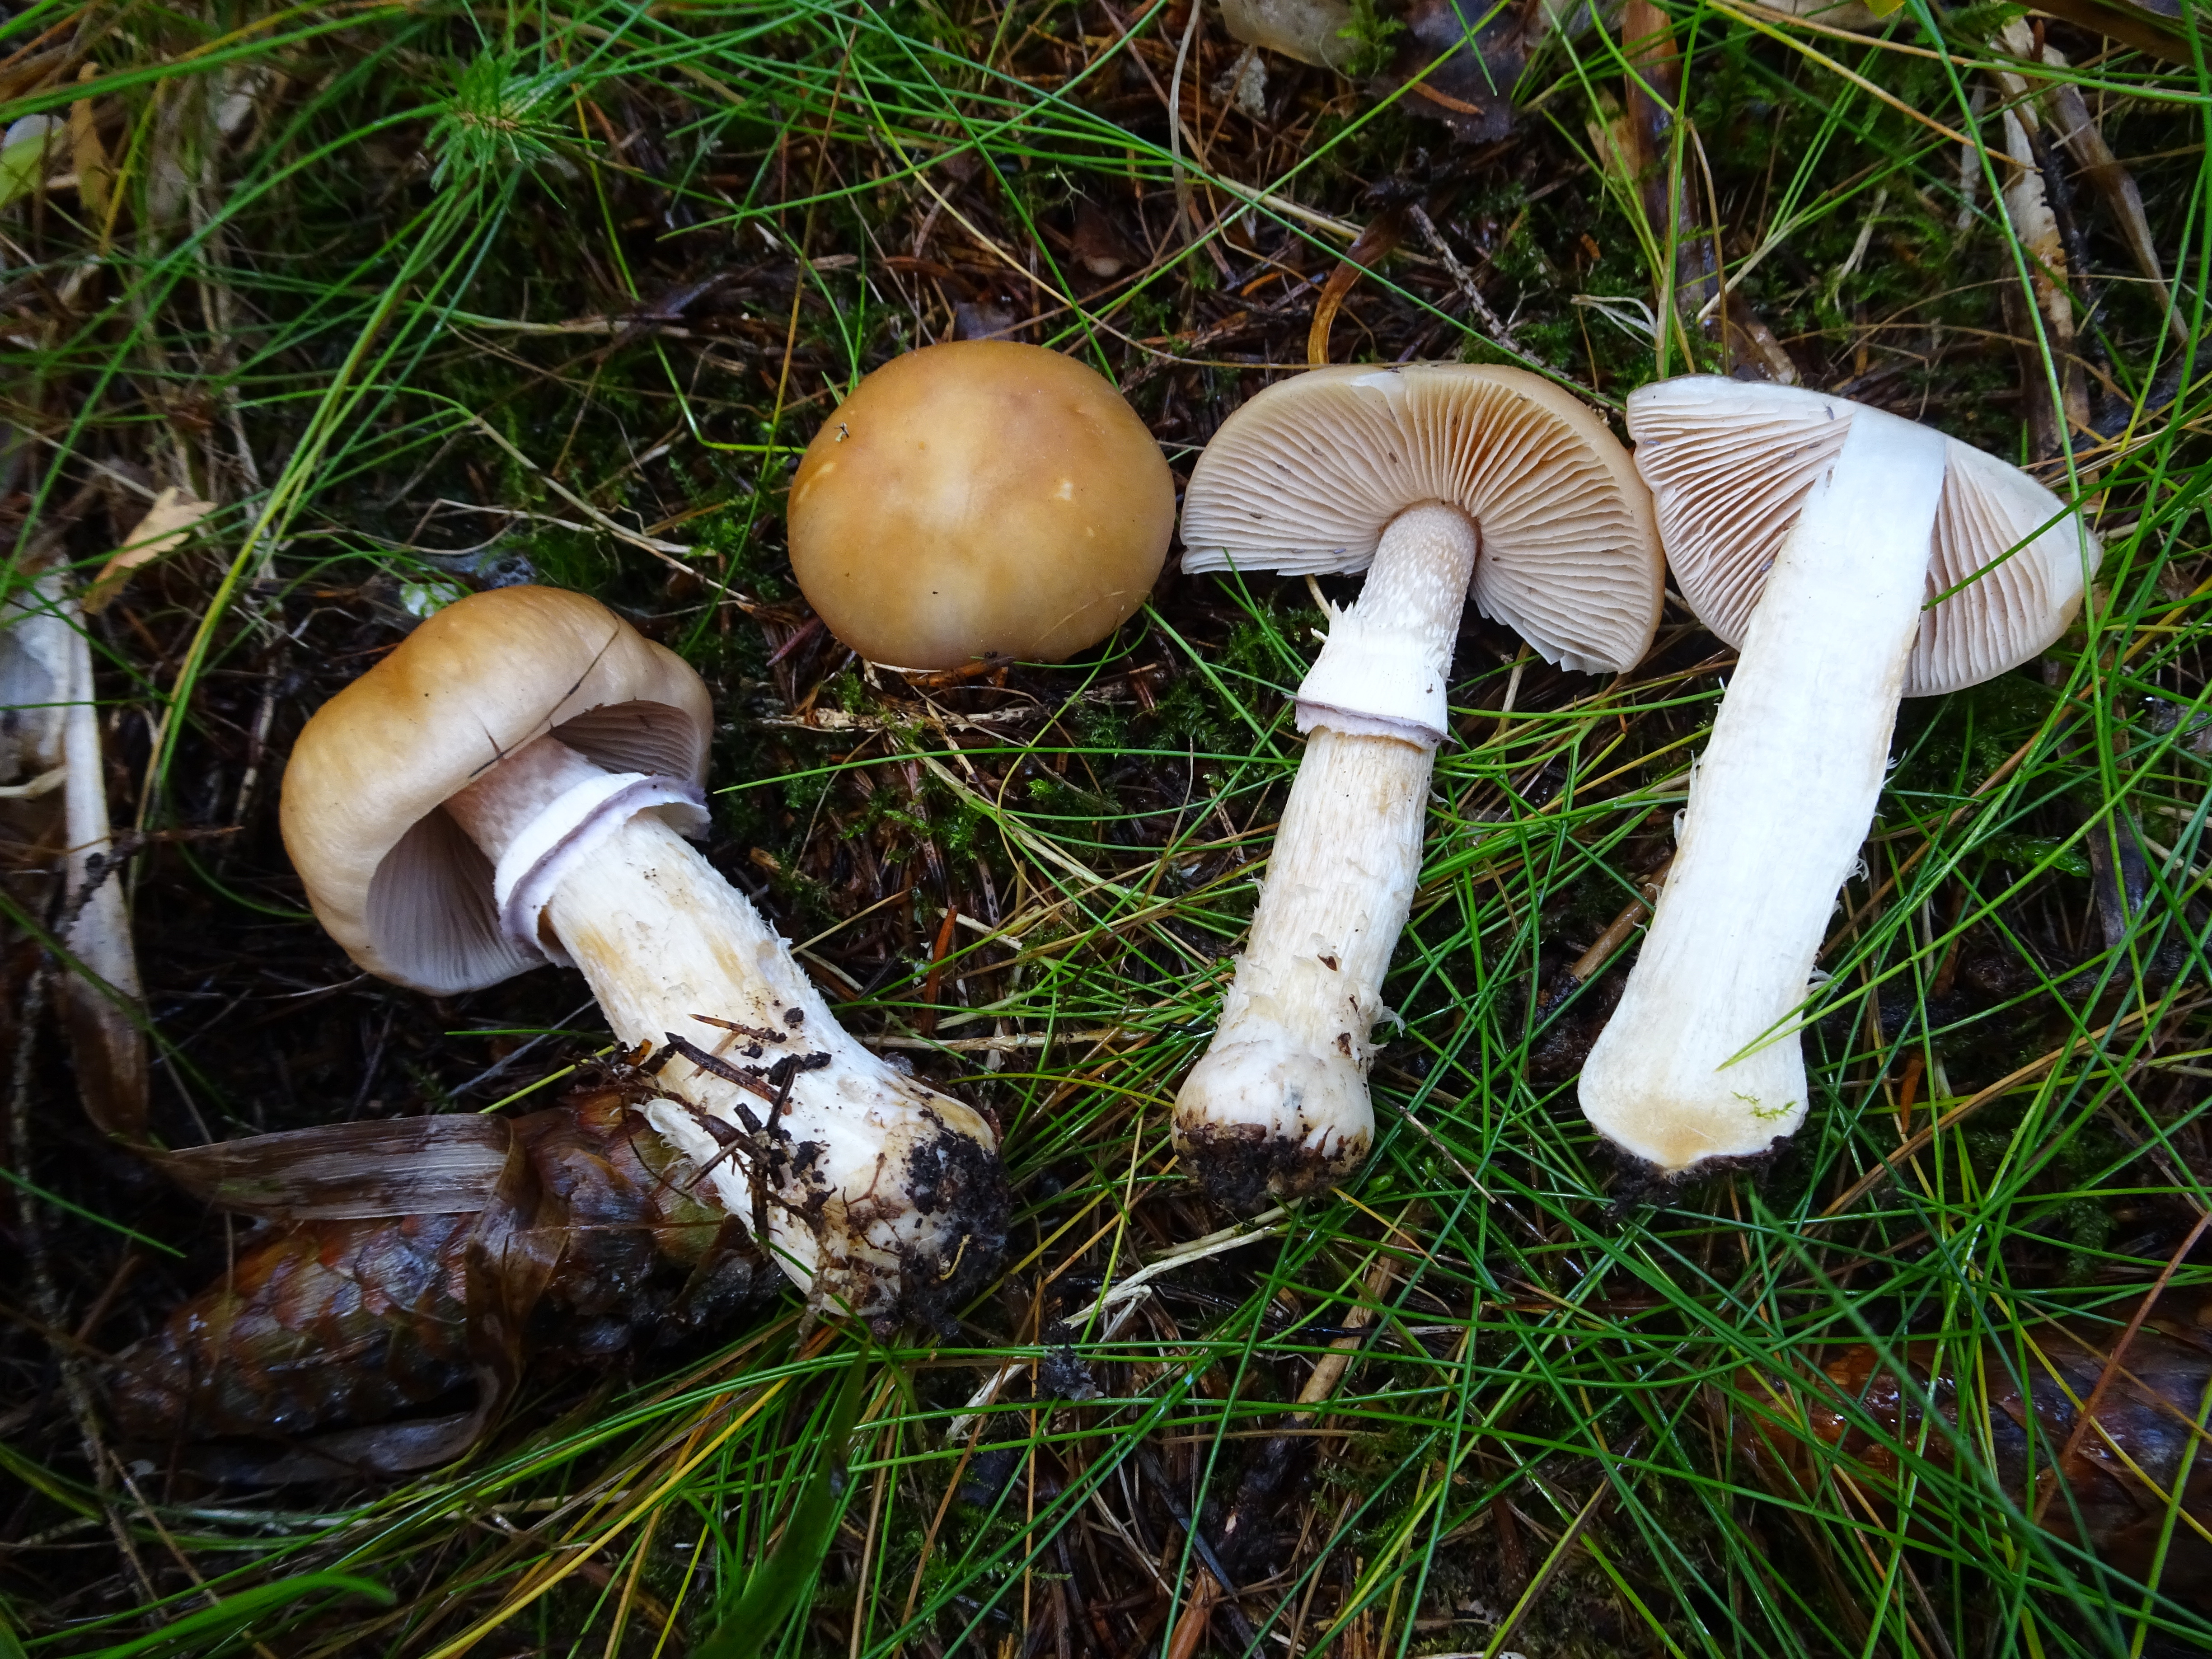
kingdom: Fungi
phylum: Basidiomycota
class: Agaricomycetes
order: Agaricales
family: Cortinariaceae
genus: Cortinarius
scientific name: Cortinarius caperatus
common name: The gypsy
